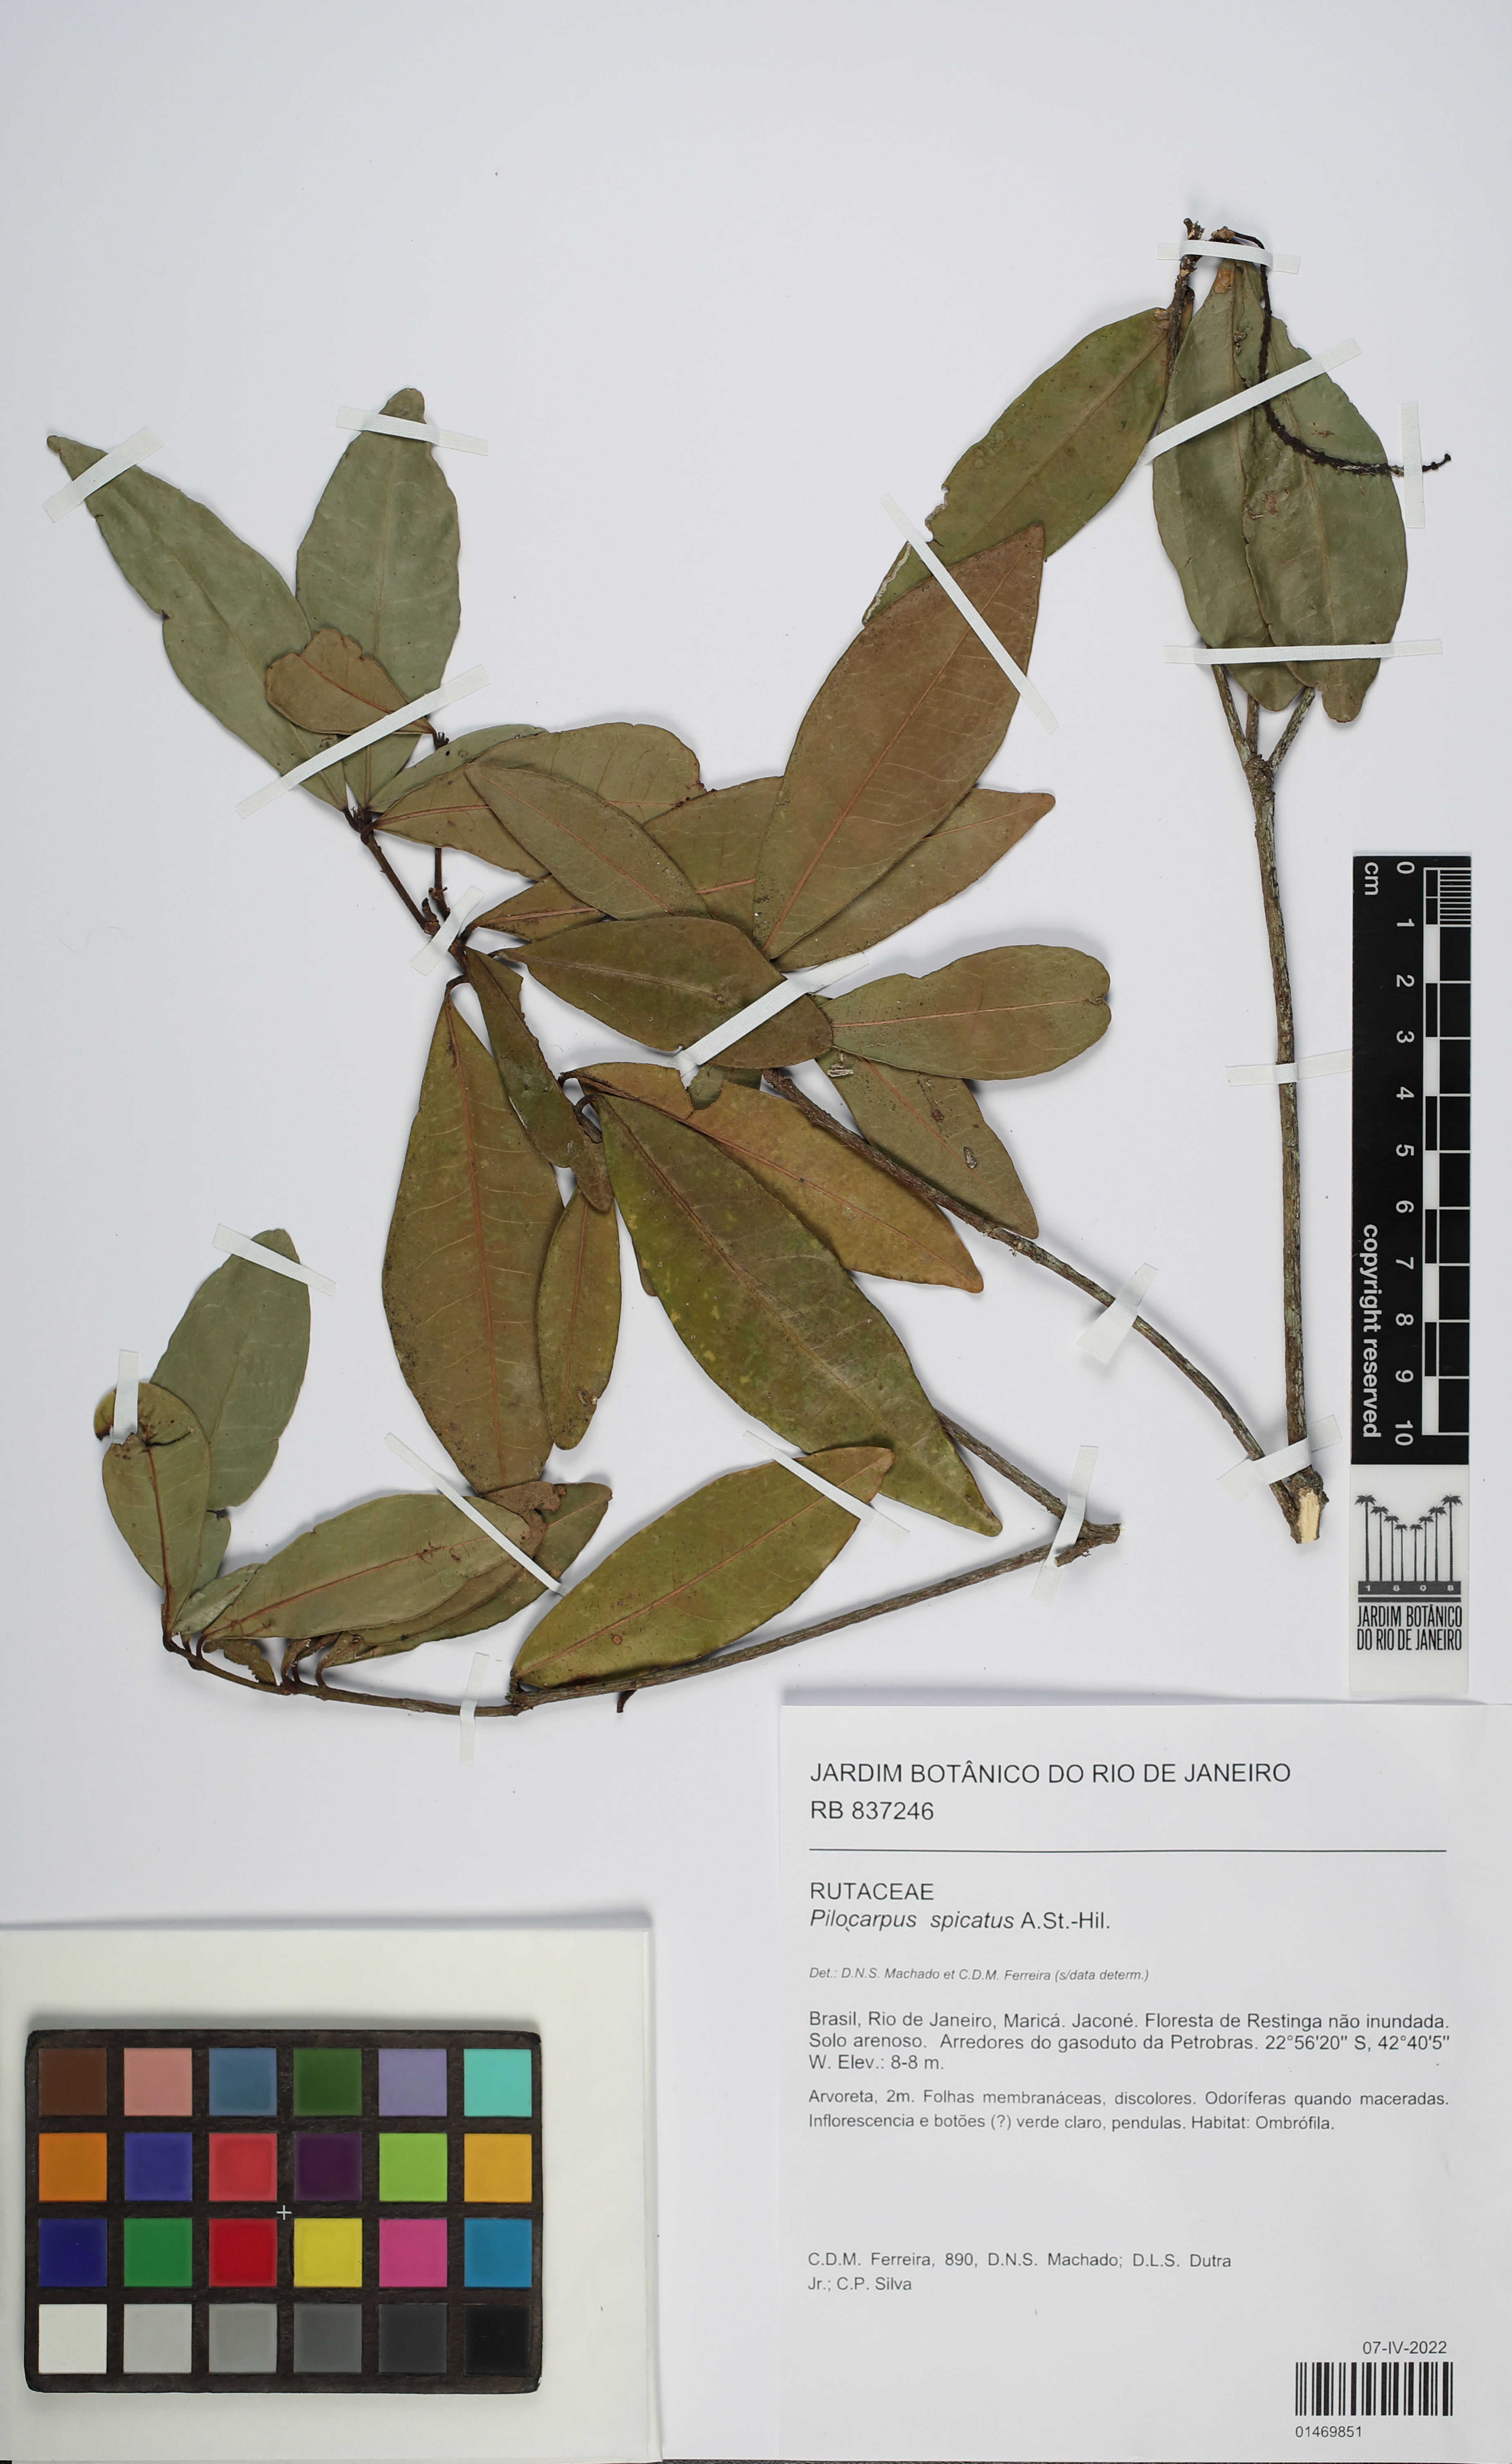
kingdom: Plantae
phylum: Tracheophyta
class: Magnoliopsida
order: Sapindales
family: Rutaceae
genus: Pilocarpus
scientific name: Pilocarpus spicatus
